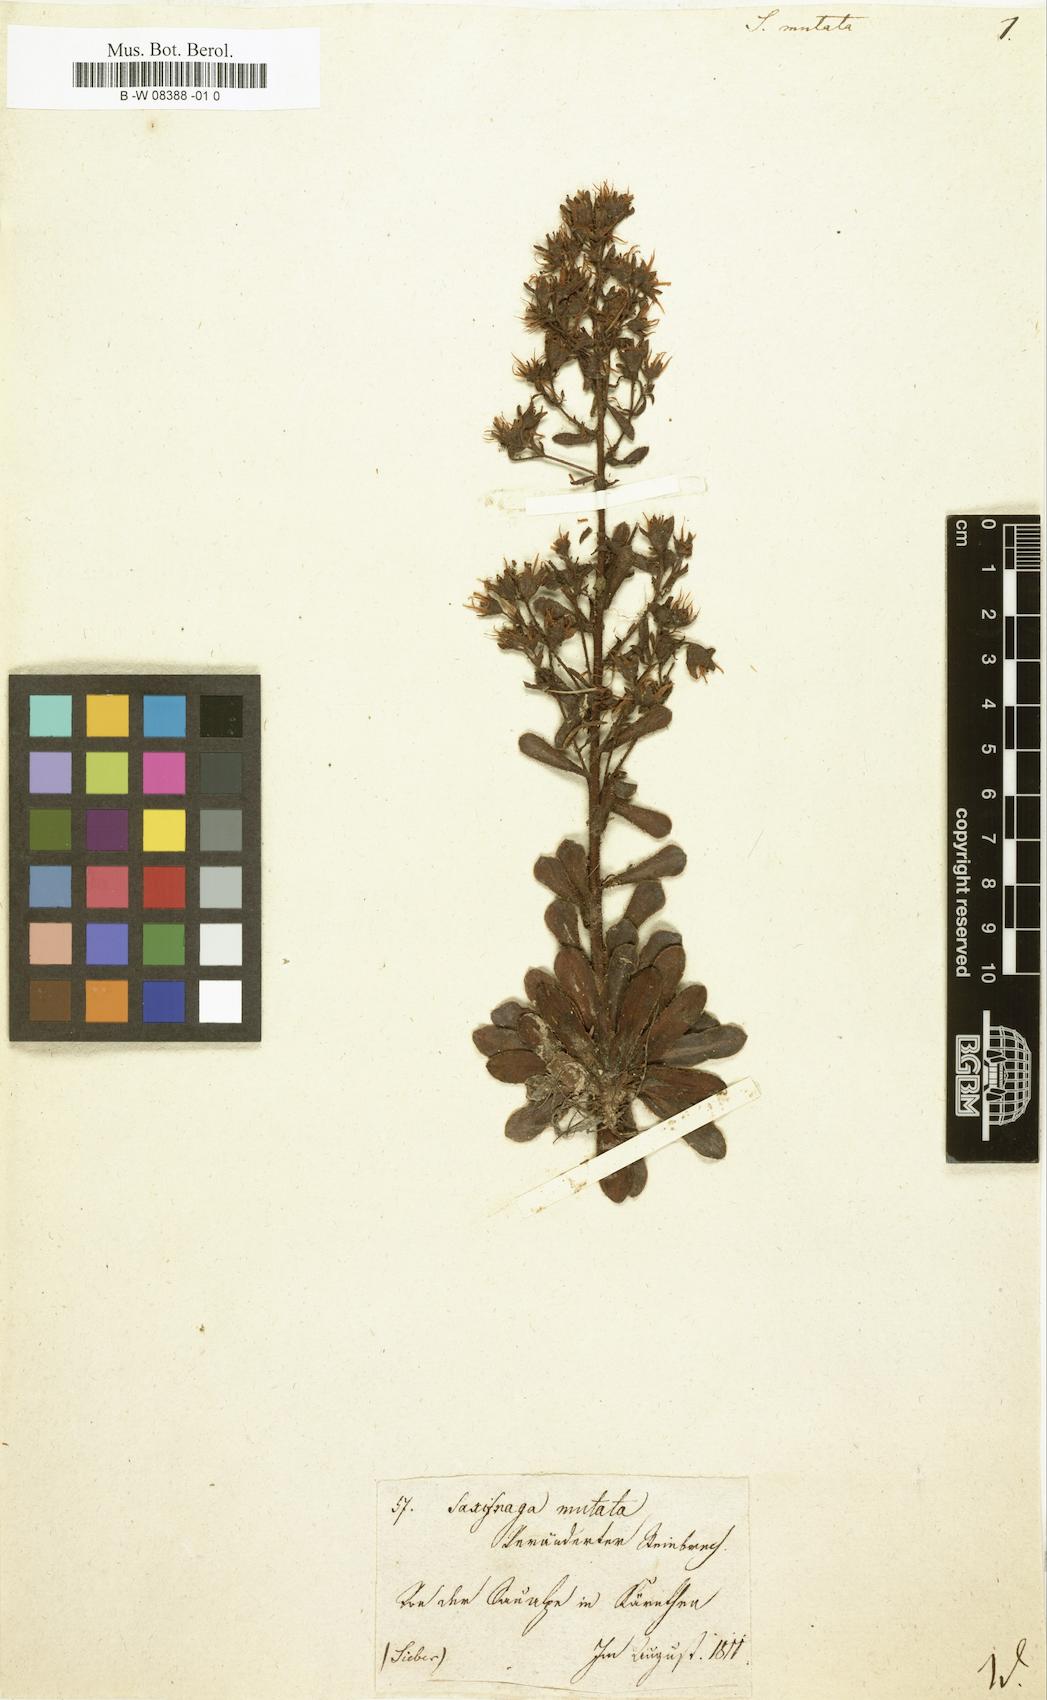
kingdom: Plantae
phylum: Tracheophyta
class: Magnoliopsida
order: Saxifragales
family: Saxifragaceae
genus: Saxifraga
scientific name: Saxifraga mutata
